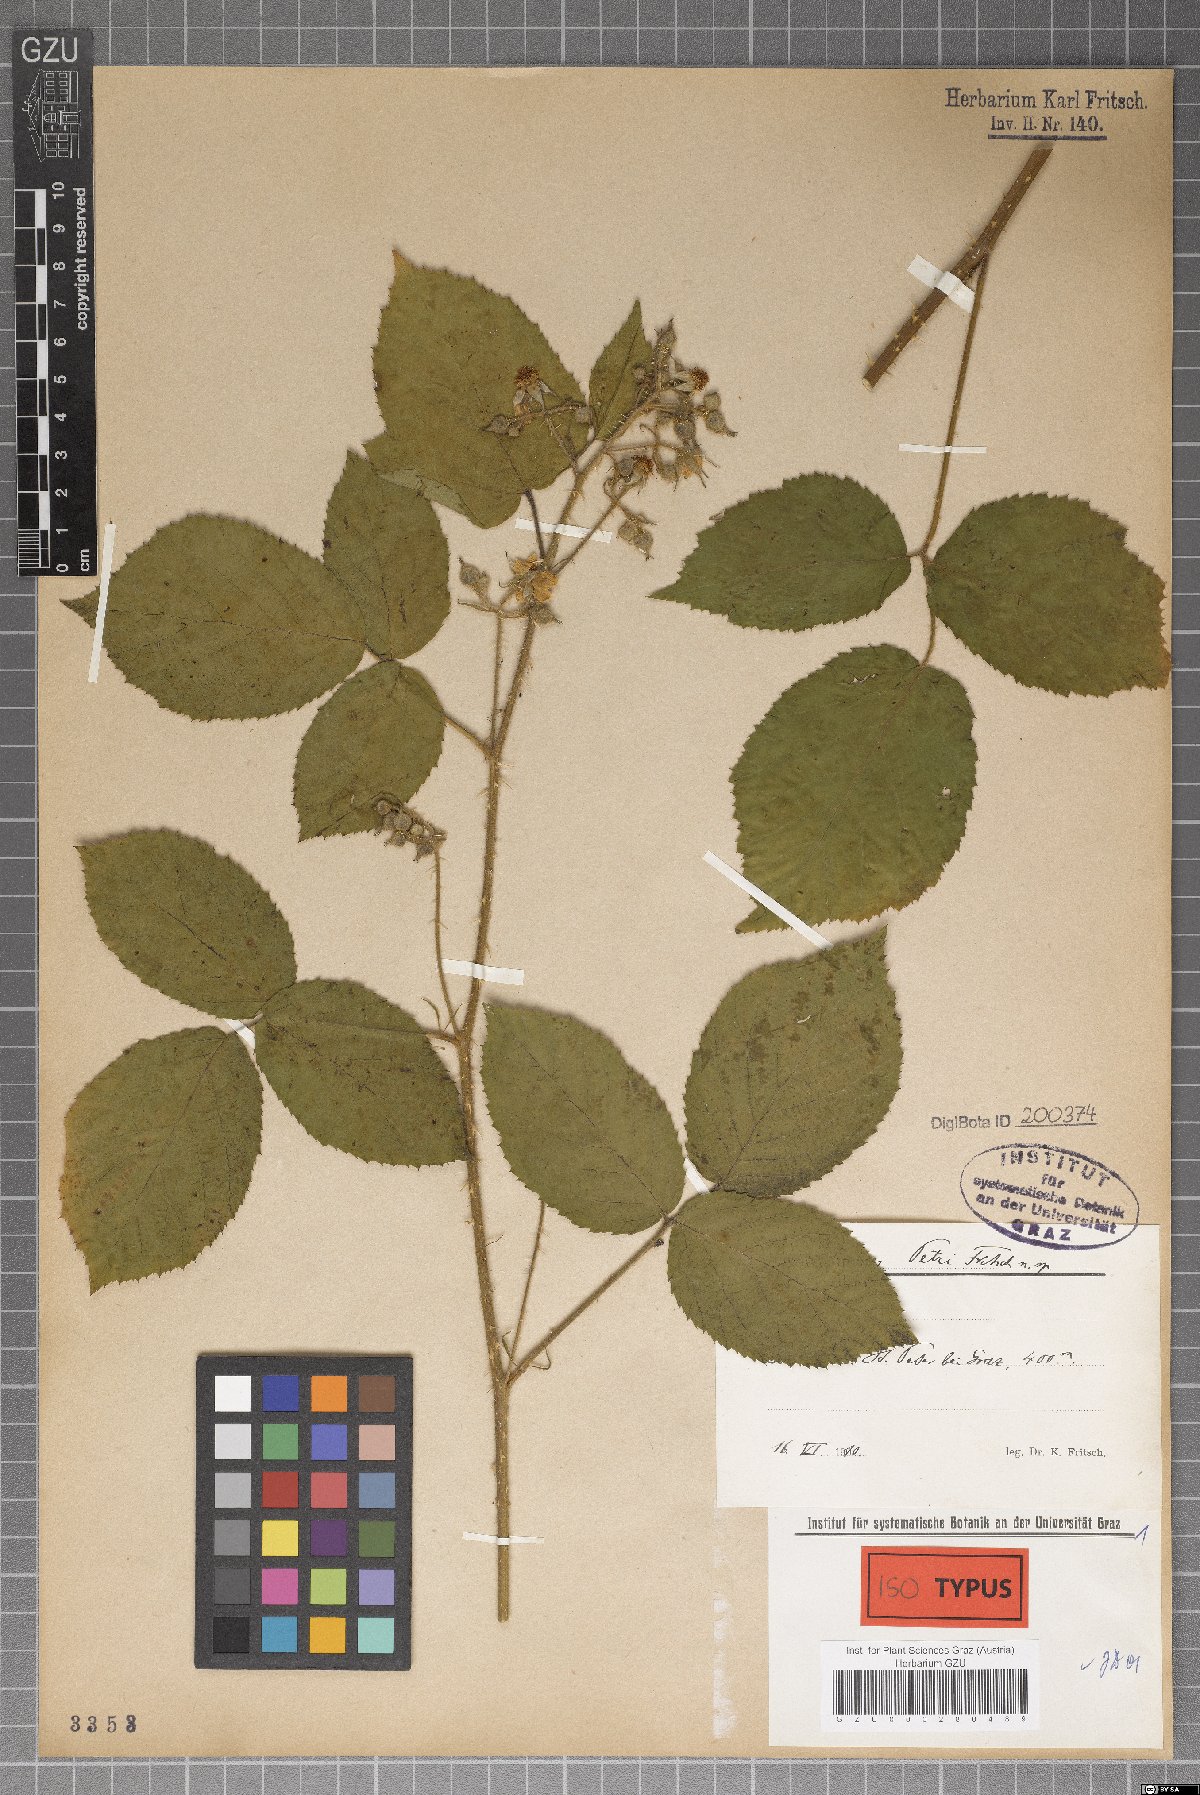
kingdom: Plantae
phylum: Tracheophyta
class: Magnoliopsida
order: Rosales
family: Rosaceae
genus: Rubus
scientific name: Rubus petri
